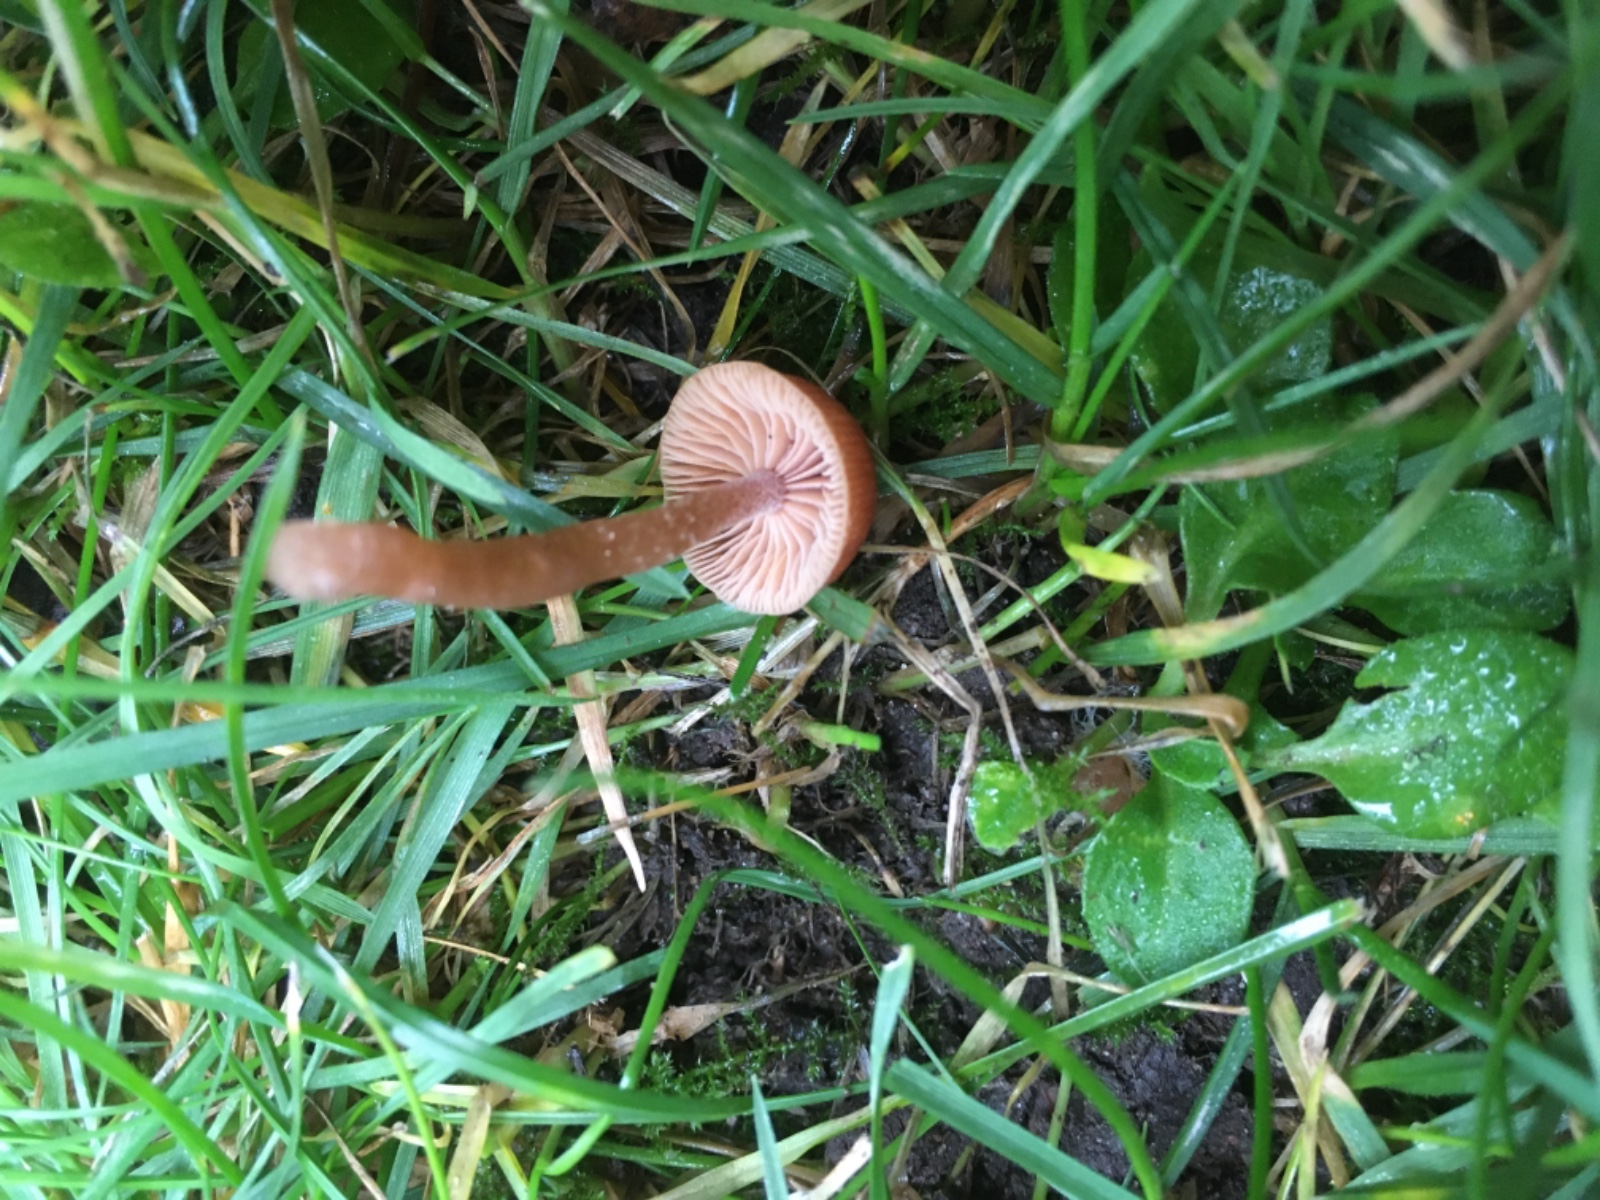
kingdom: Fungi
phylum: Basidiomycota
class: Agaricomycetes
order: Agaricales
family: Tubariaceae
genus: Tubaria
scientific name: Tubaria furfuracea
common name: kliddet fnughat
